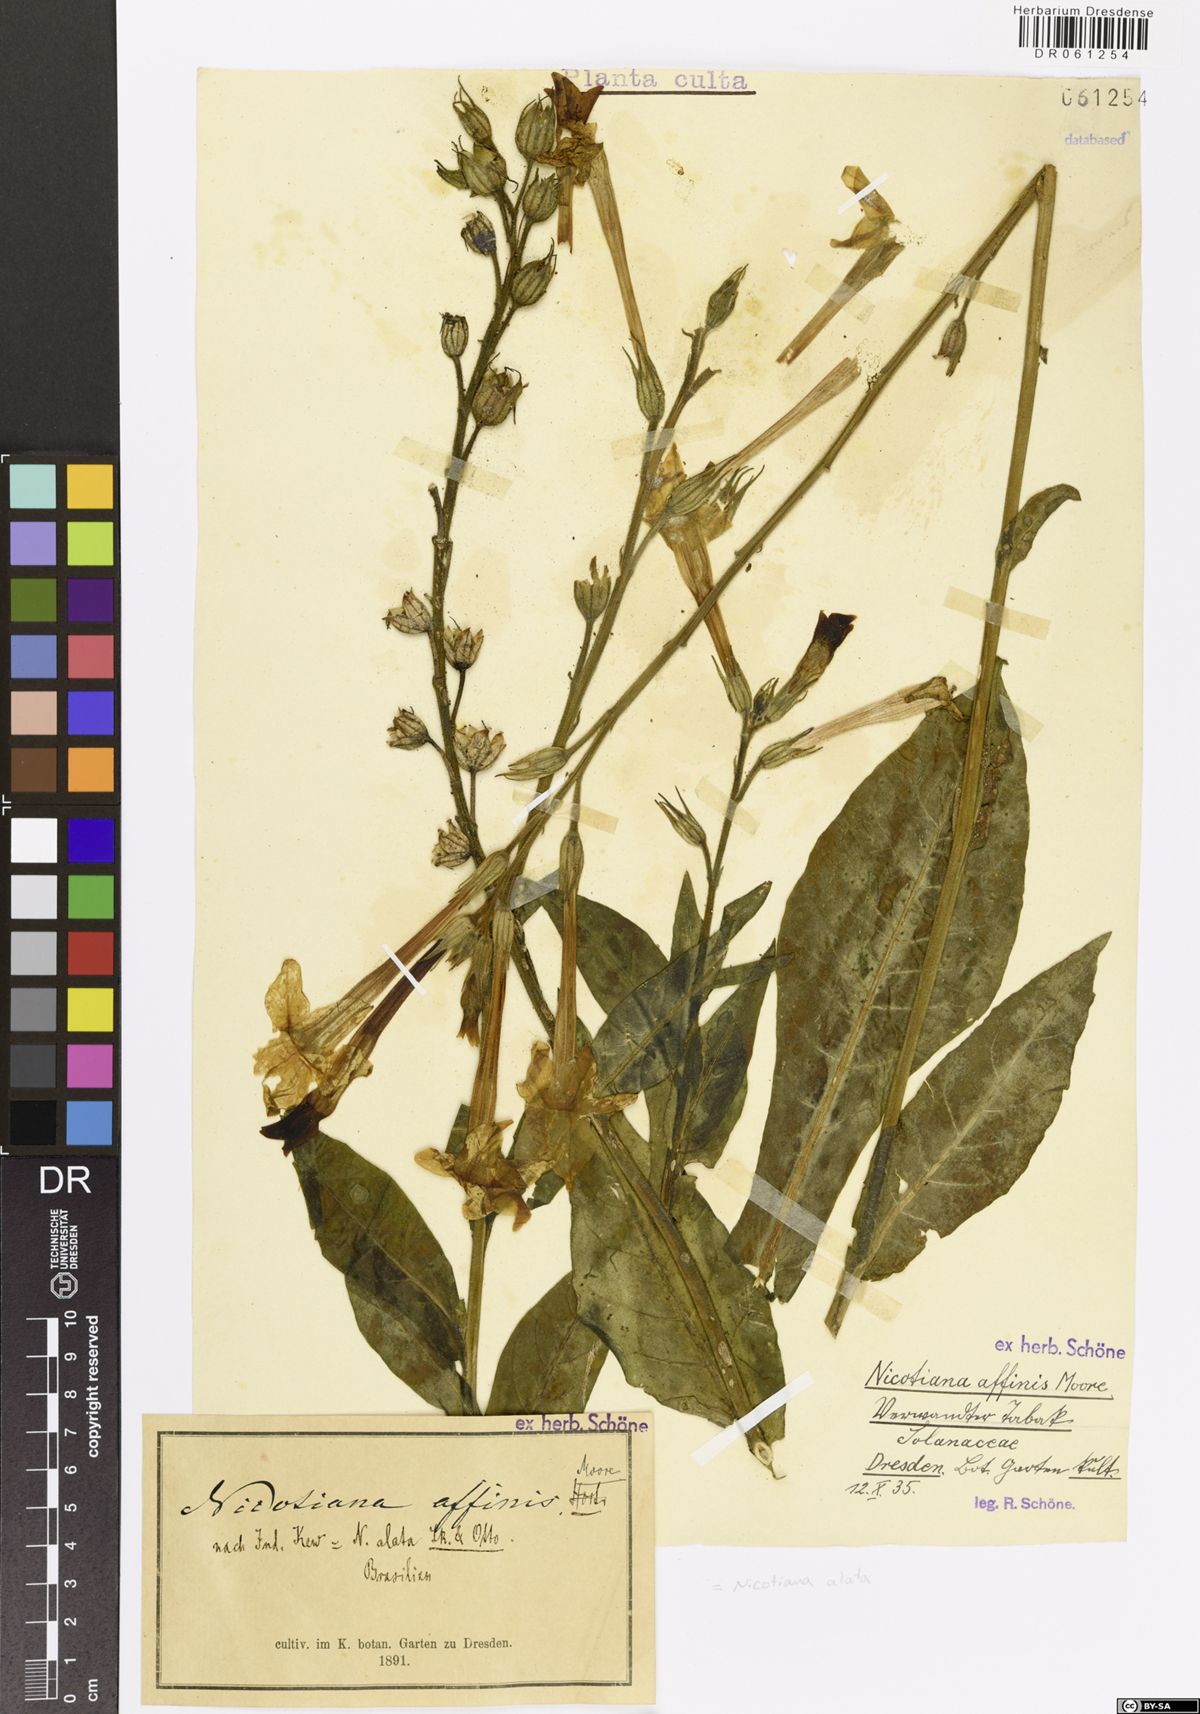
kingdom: Plantae
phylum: Tracheophyta
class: Magnoliopsida
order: Solanales
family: Solanaceae
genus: Nicotiana
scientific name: Nicotiana alata
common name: Jasmine tobacco
